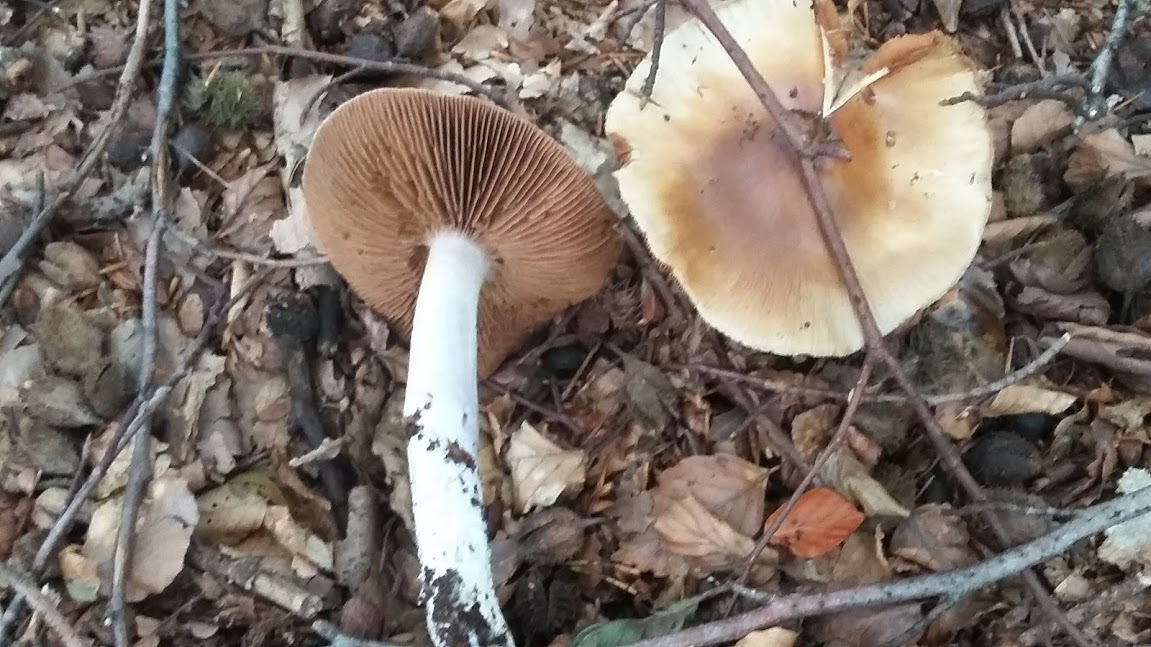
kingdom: Fungi
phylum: Basidiomycota
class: Agaricomycetes
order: Agaricales
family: Cortinariaceae
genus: Cortinarius
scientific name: Cortinarius elatior
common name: høj slørhat
